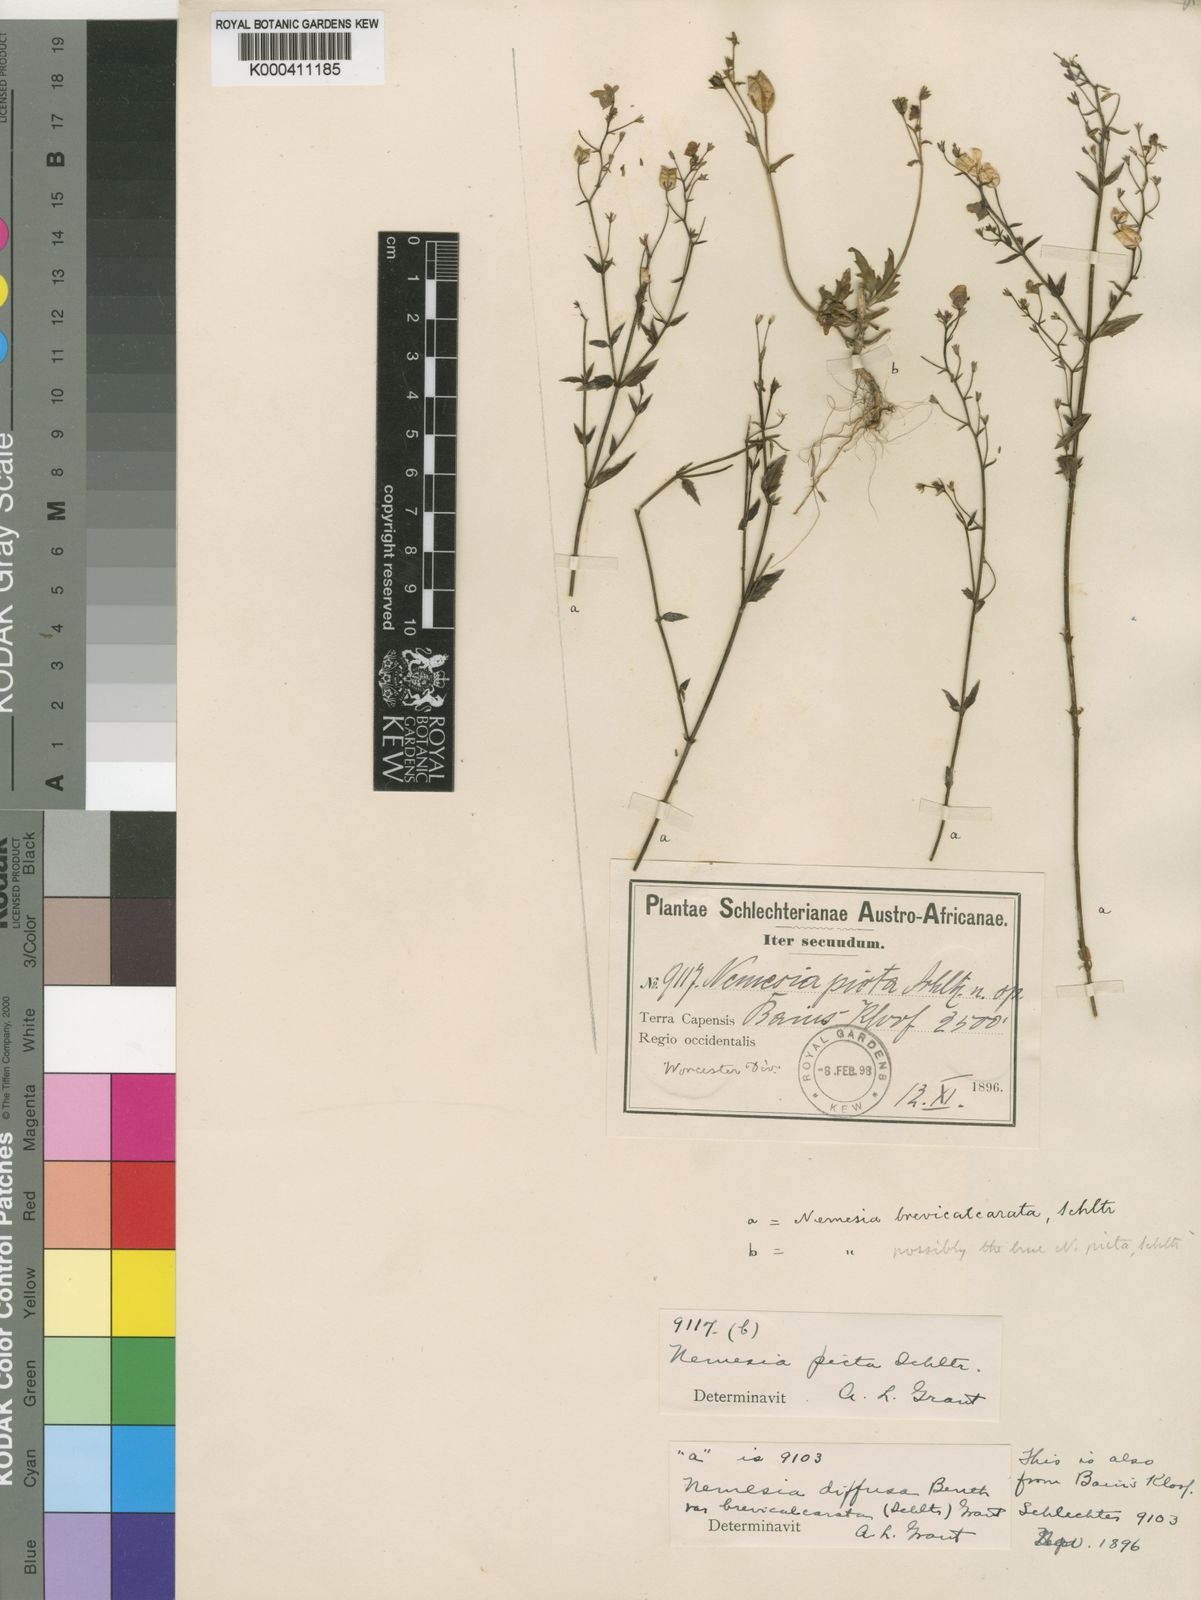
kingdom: Plantae
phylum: Tracheophyta
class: Magnoliopsida
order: Lamiales
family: Scrophulariaceae
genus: Nemesia
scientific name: Nemesia picta
